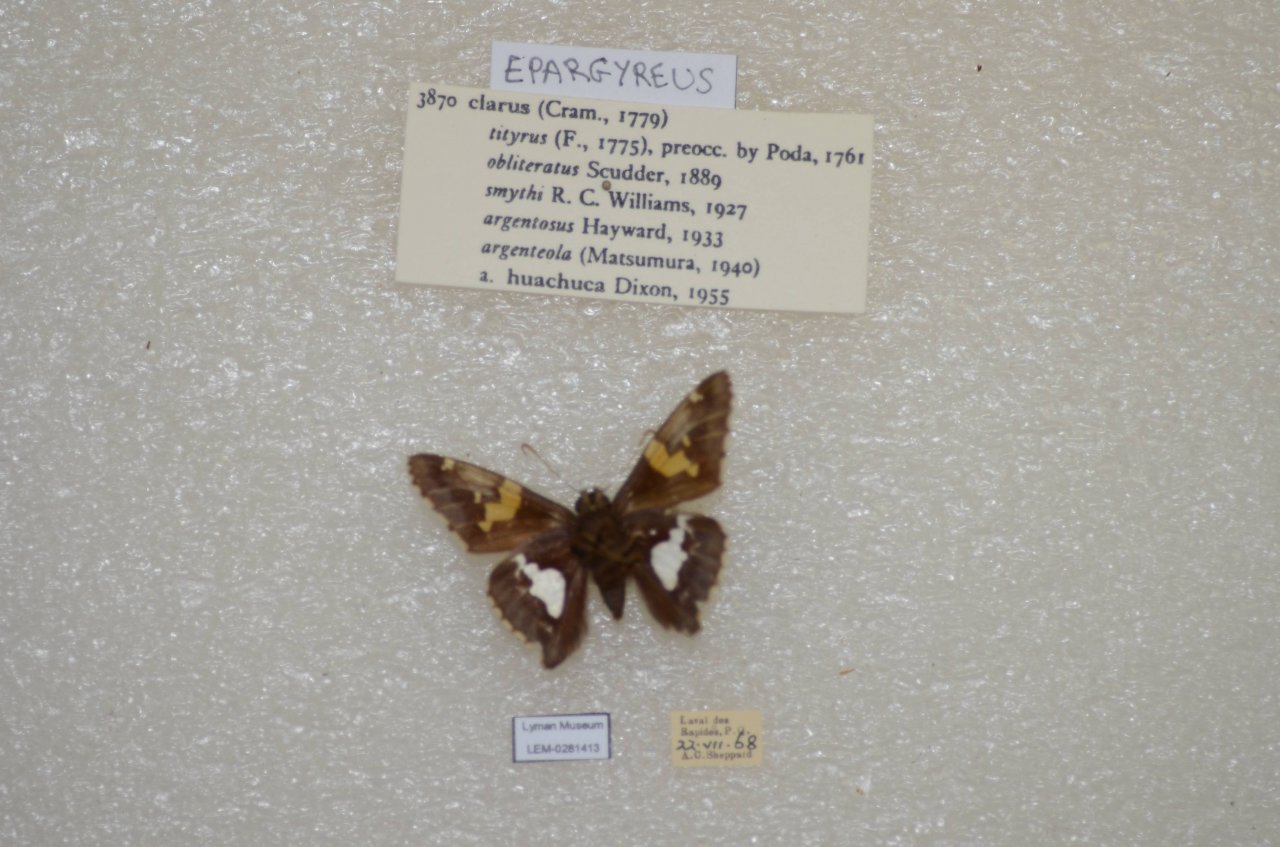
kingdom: Animalia
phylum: Arthropoda
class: Insecta
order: Lepidoptera
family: Hesperiidae
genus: Epargyreus
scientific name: Epargyreus clarus
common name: Silver-spotted Skipper
